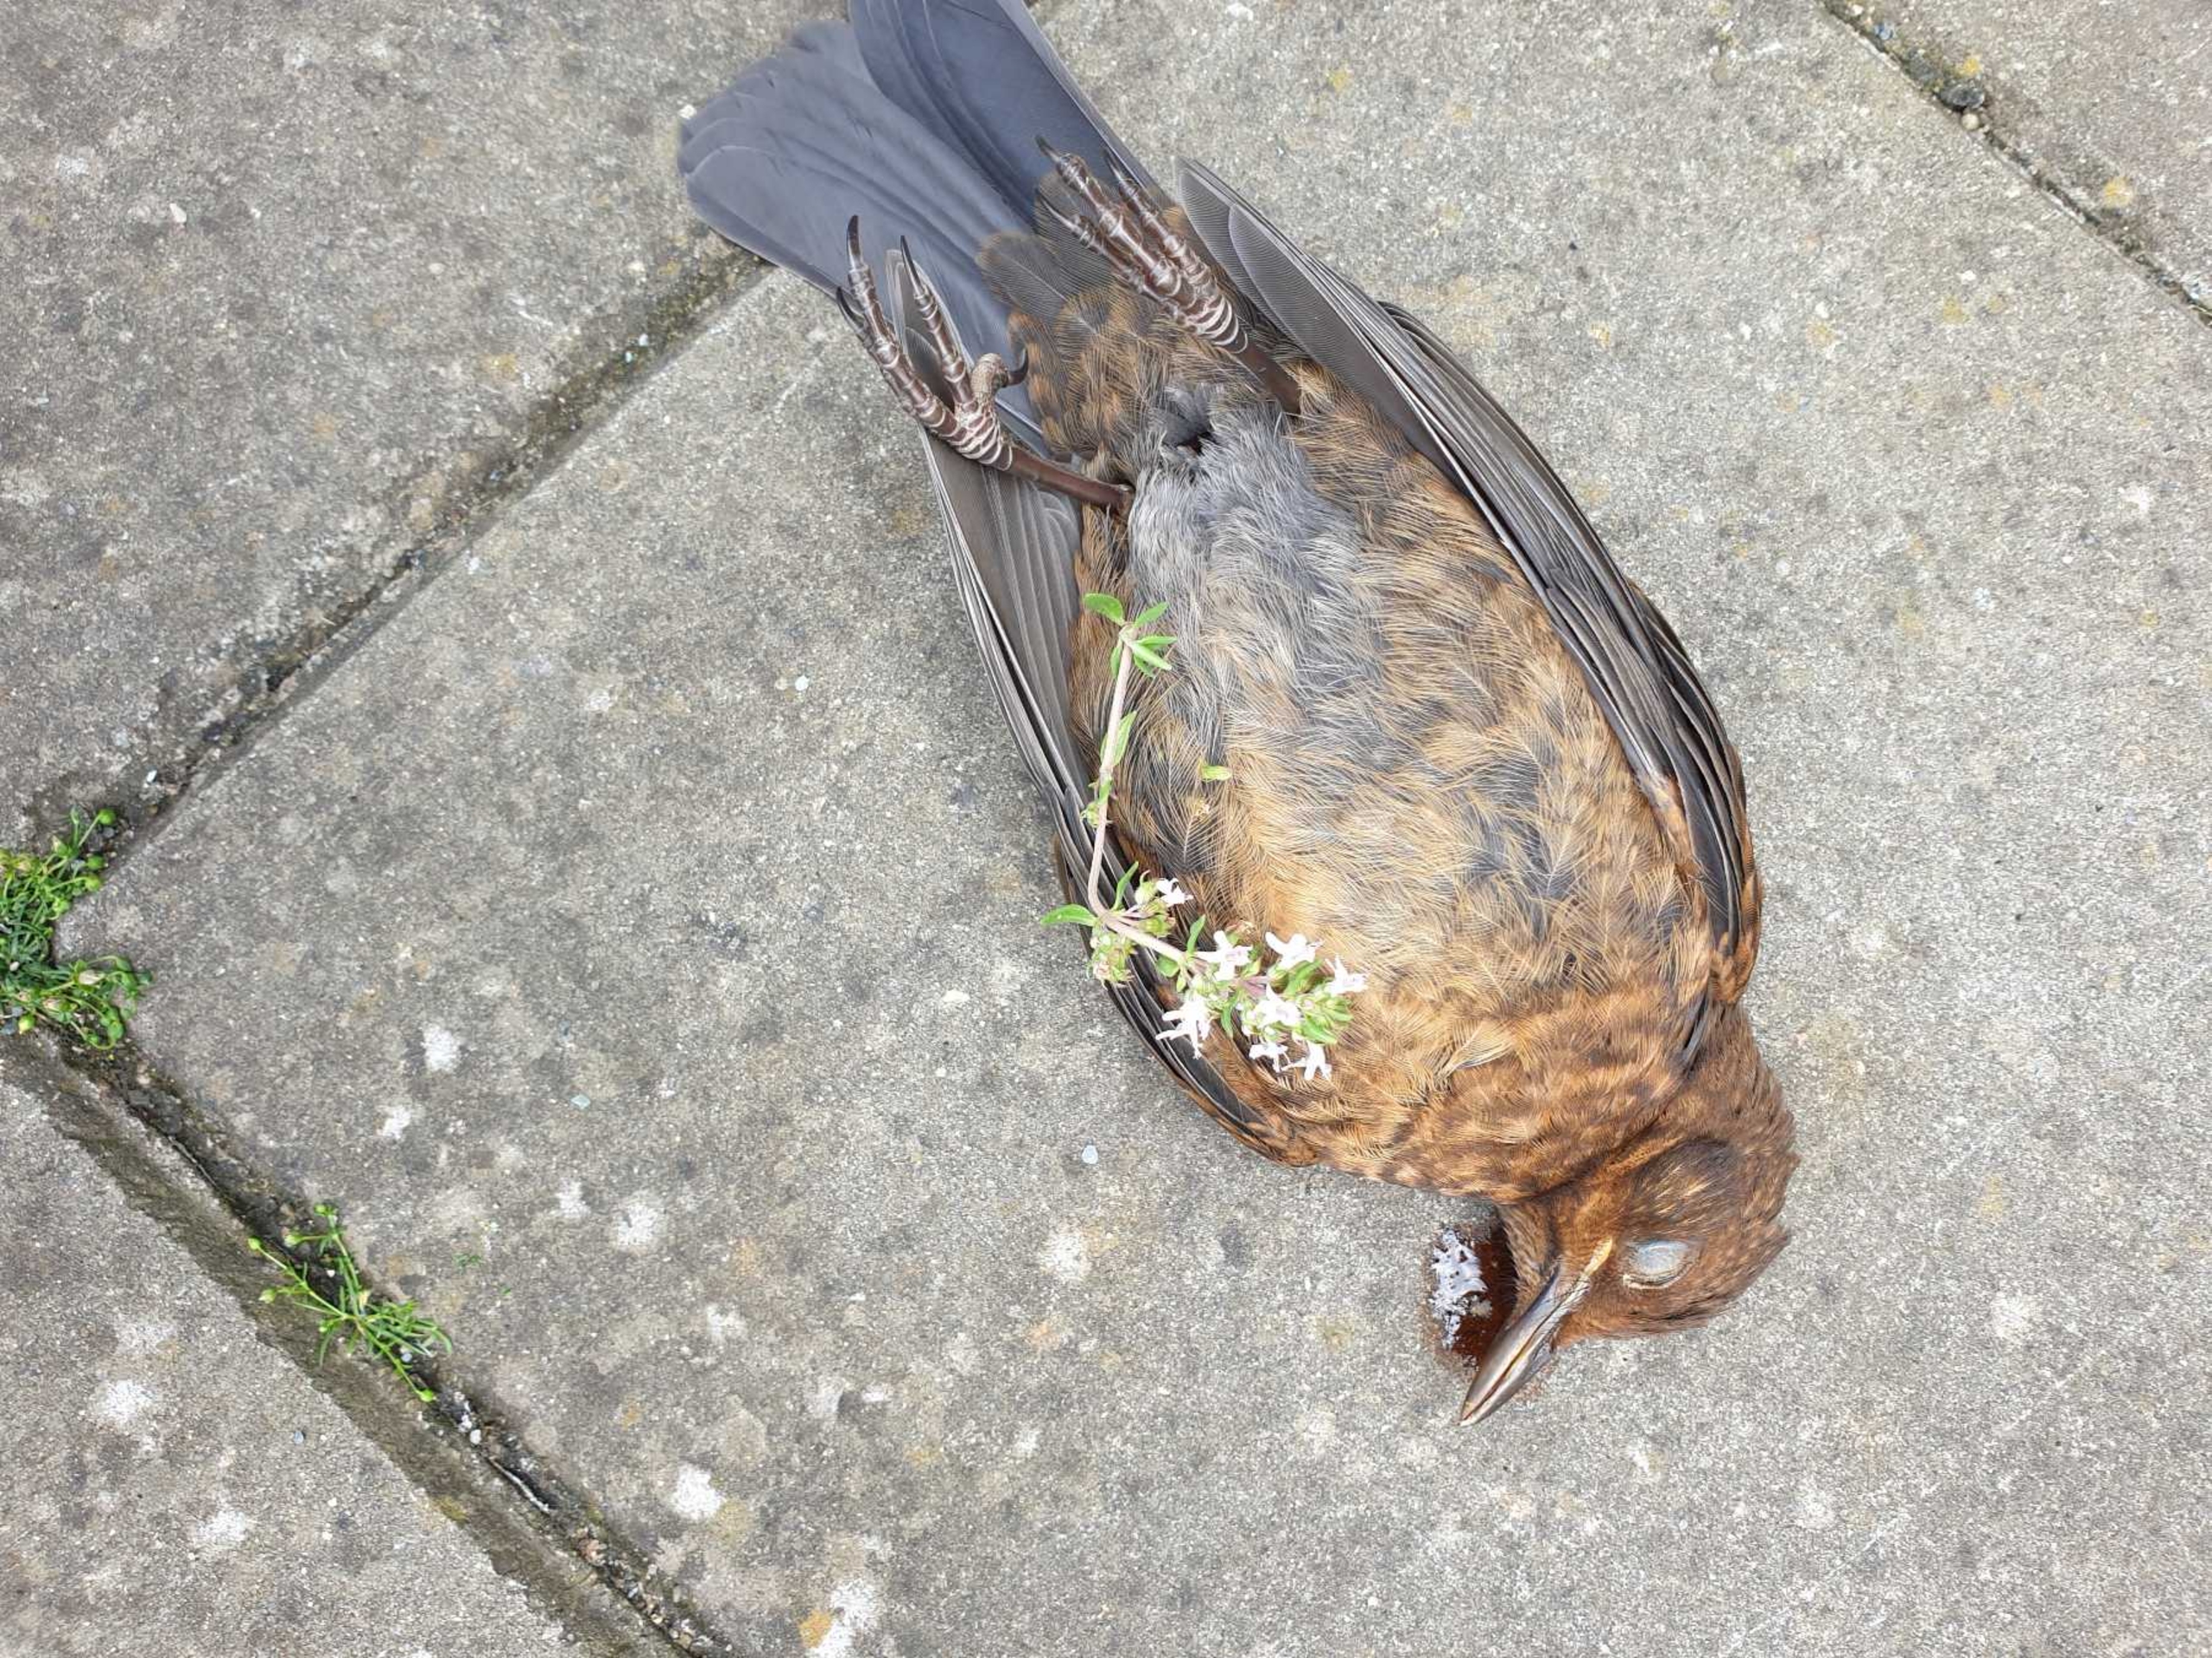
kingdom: Animalia
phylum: Chordata
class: Aves
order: Passeriformes
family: Turdidae
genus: Turdus
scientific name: Turdus merula
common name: Solsort
